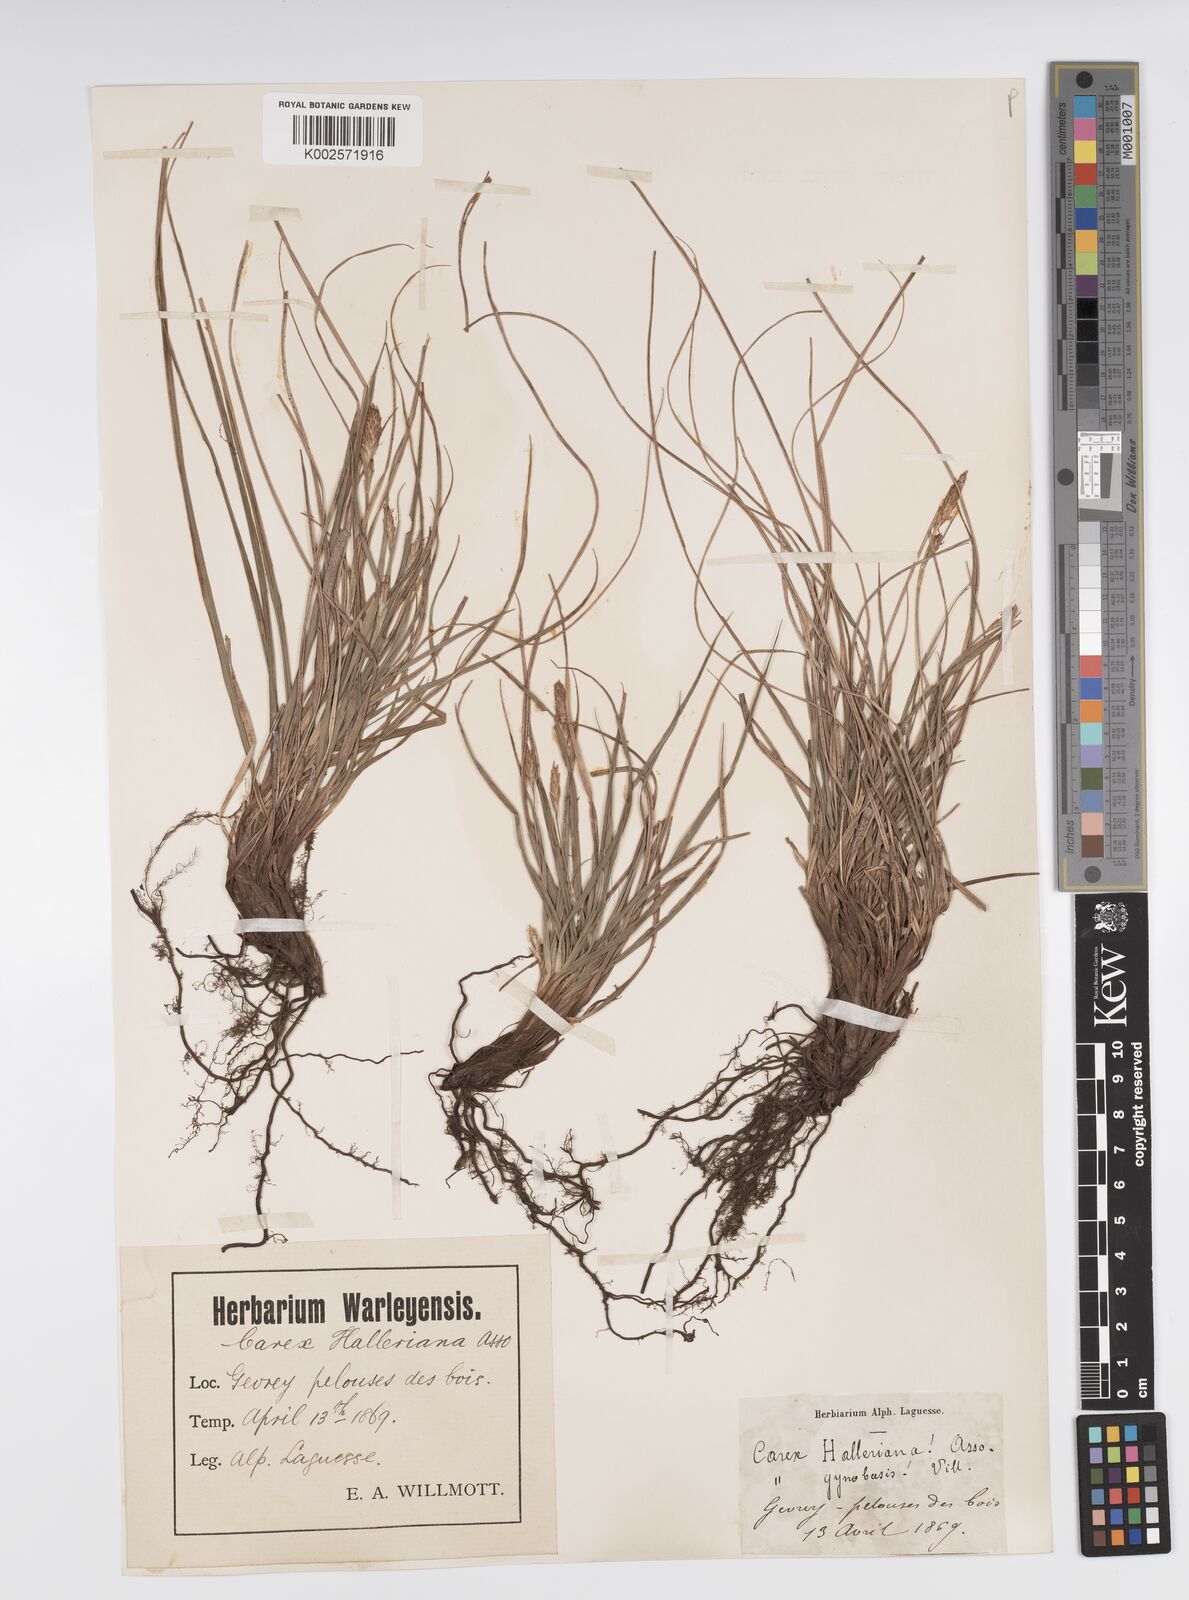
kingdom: Plantae
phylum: Tracheophyta
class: Liliopsida
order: Poales
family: Cyperaceae
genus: Carex
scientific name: Carex halleriana
